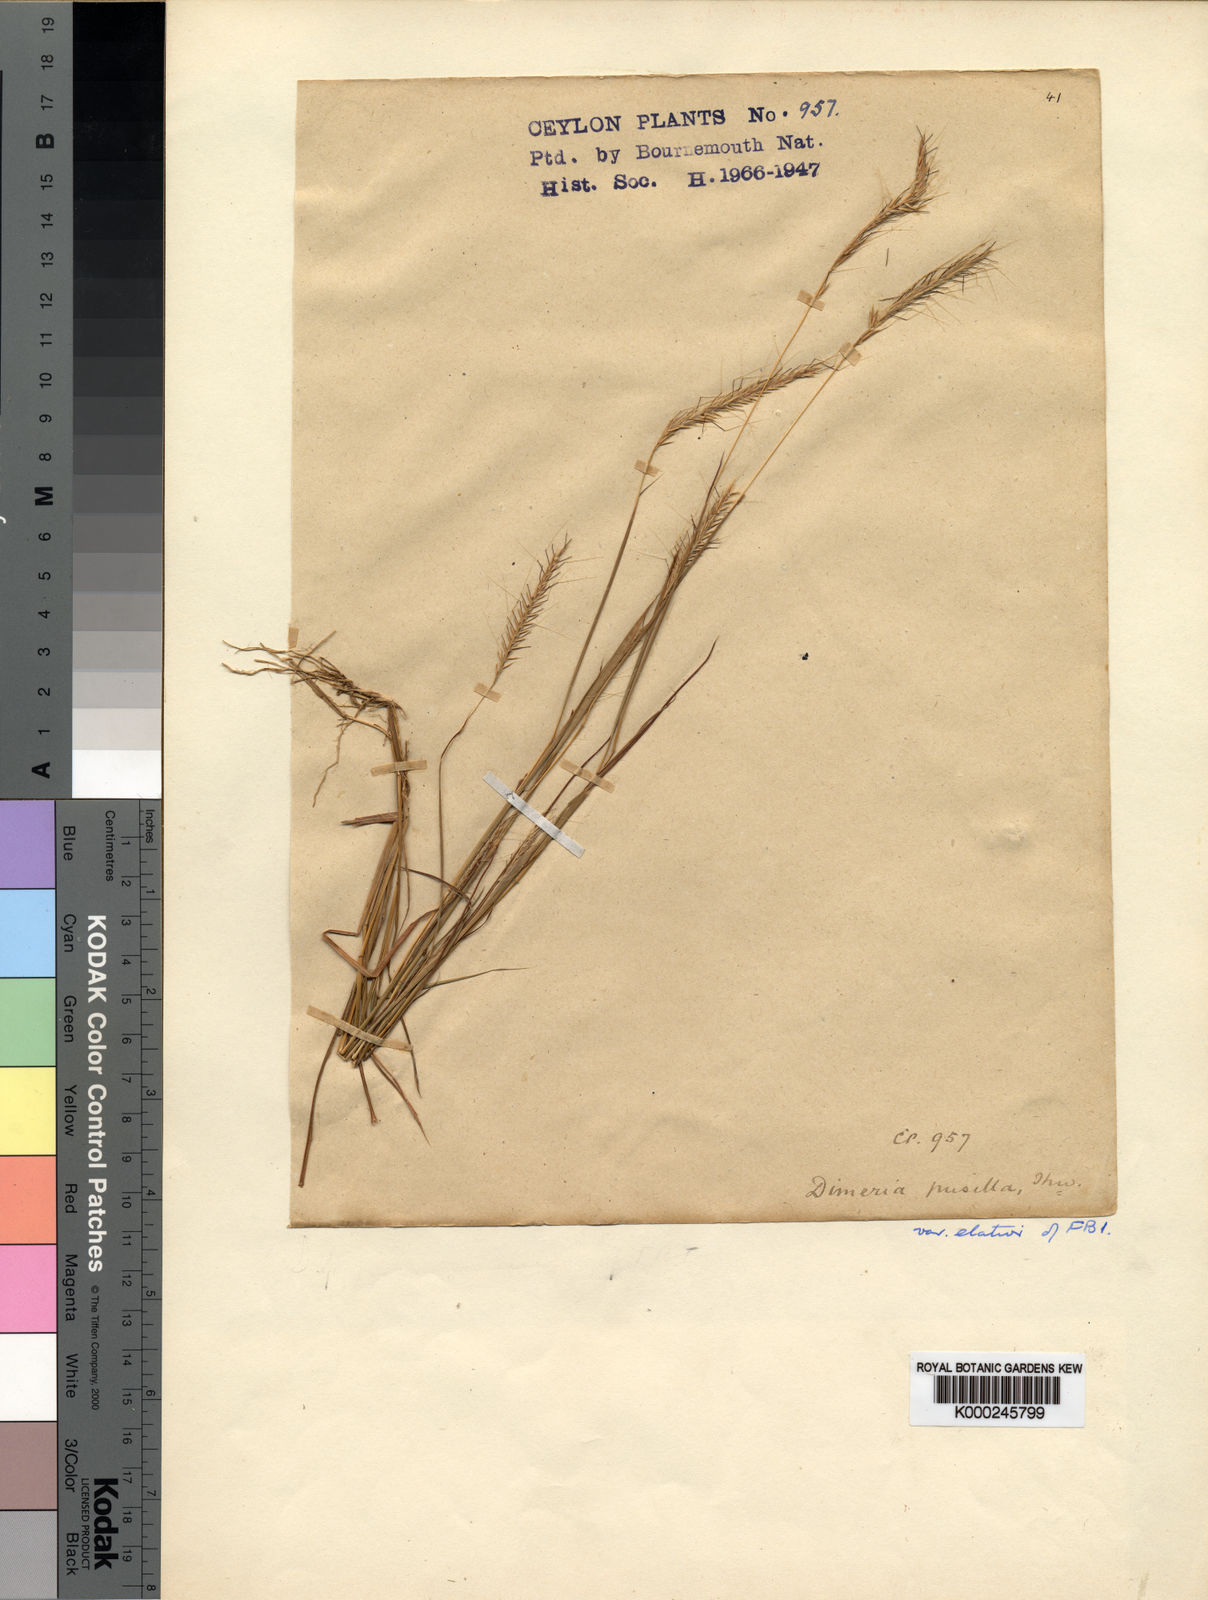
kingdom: Plantae
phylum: Tracheophyta
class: Liliopsida
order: Poales
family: Poaceae
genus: Dimeria
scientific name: Dimeria thwaitesii
